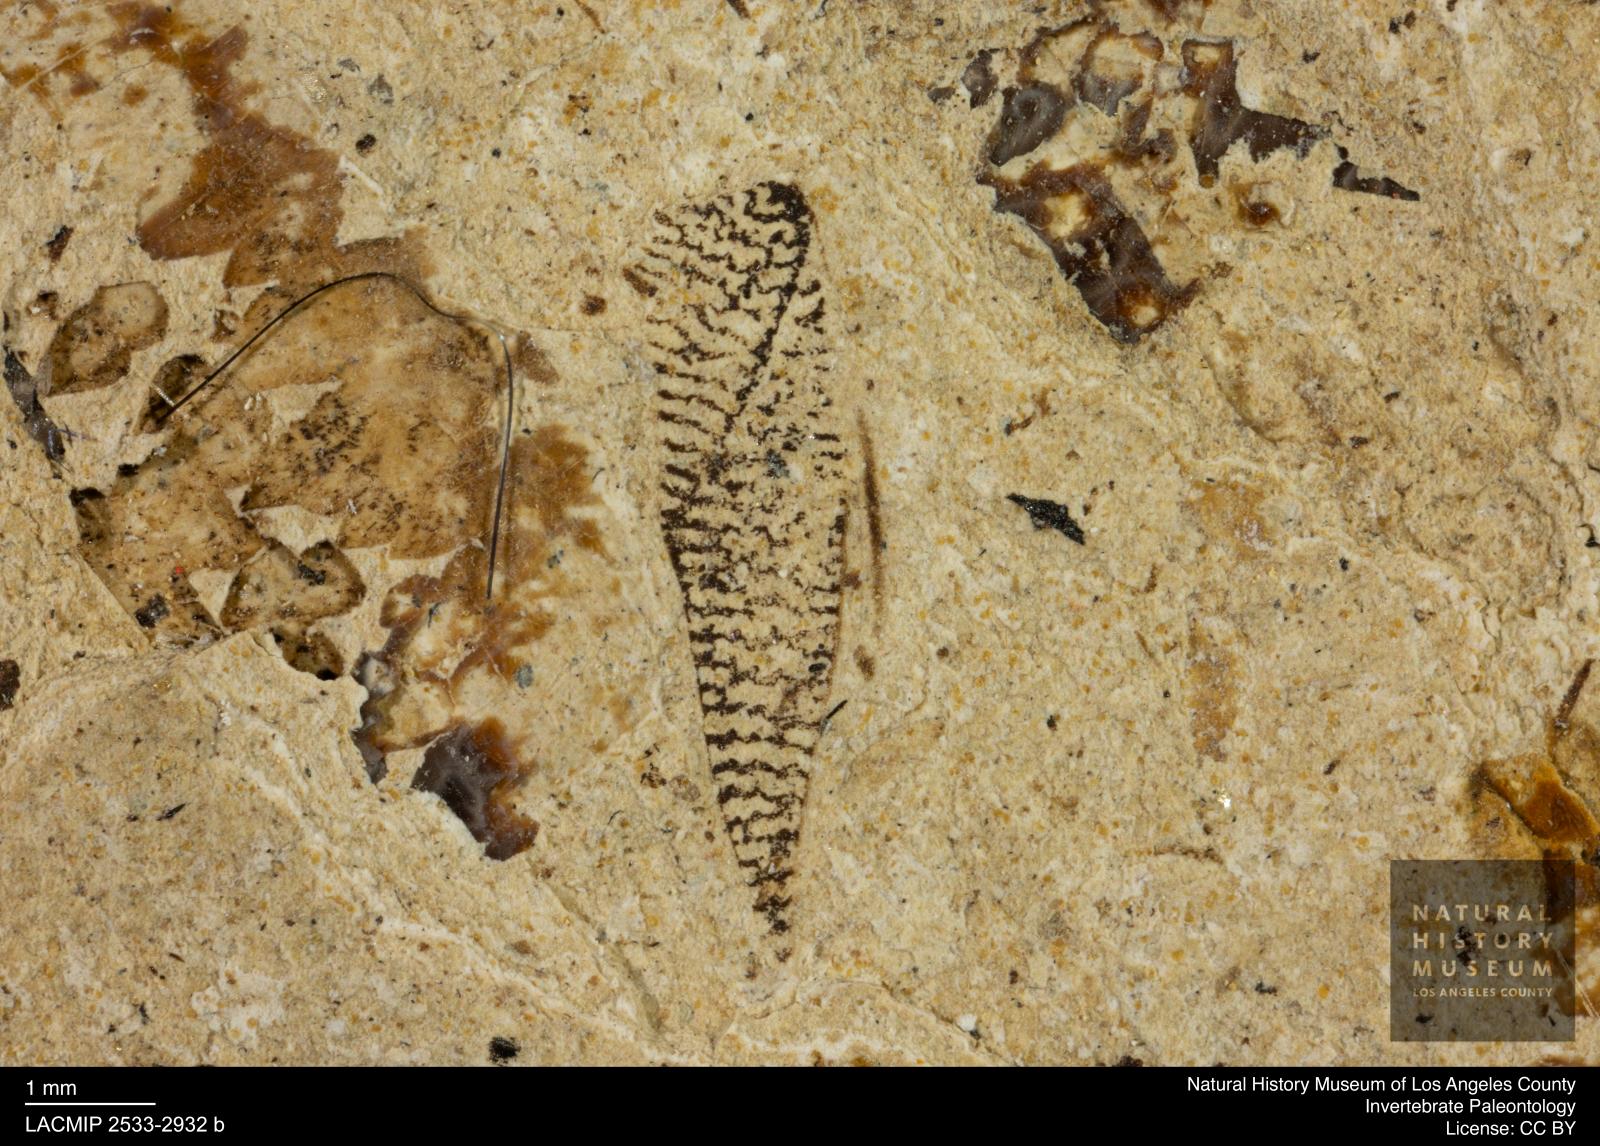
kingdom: Animalia
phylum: Arthropoda
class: Insecta
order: Hemiptera
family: Corixidae
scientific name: Corixidae
